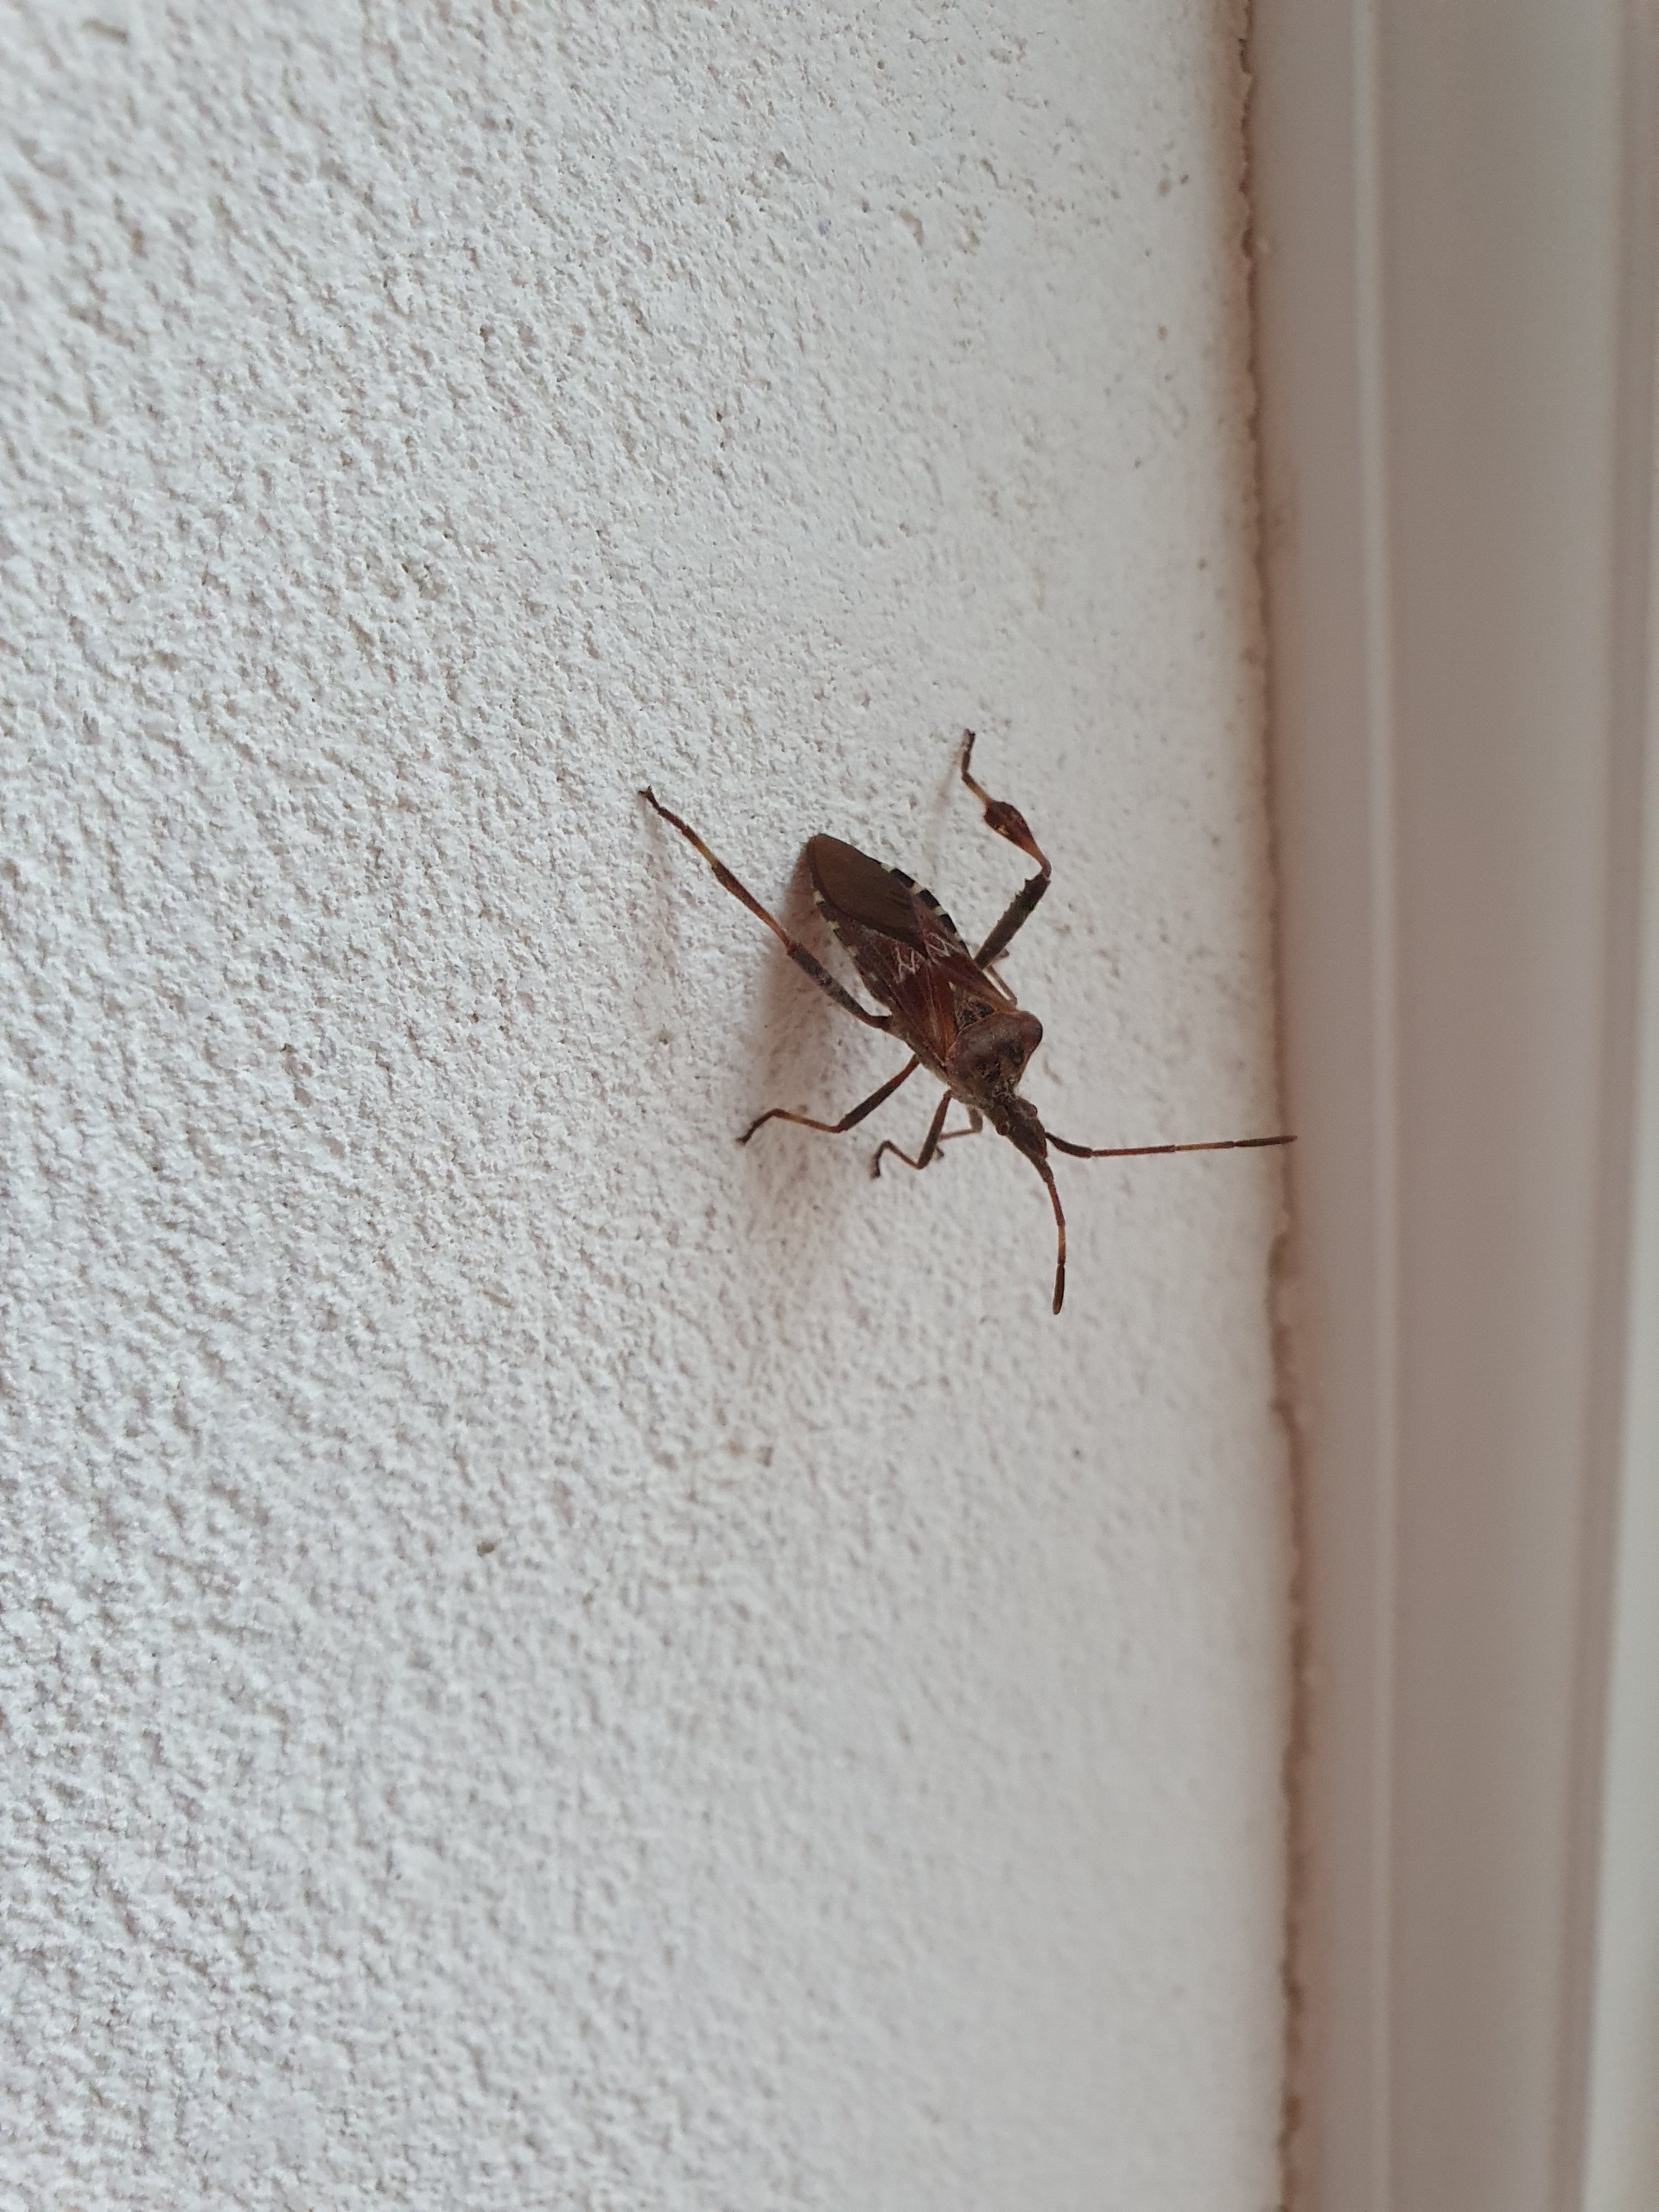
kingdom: Animalia
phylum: Arthropoda
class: Insecta
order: Hemiptera
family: Coreidae
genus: Leptoglossus
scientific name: Leptoglossus occidentalis
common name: Amerikansk fyrretæge
